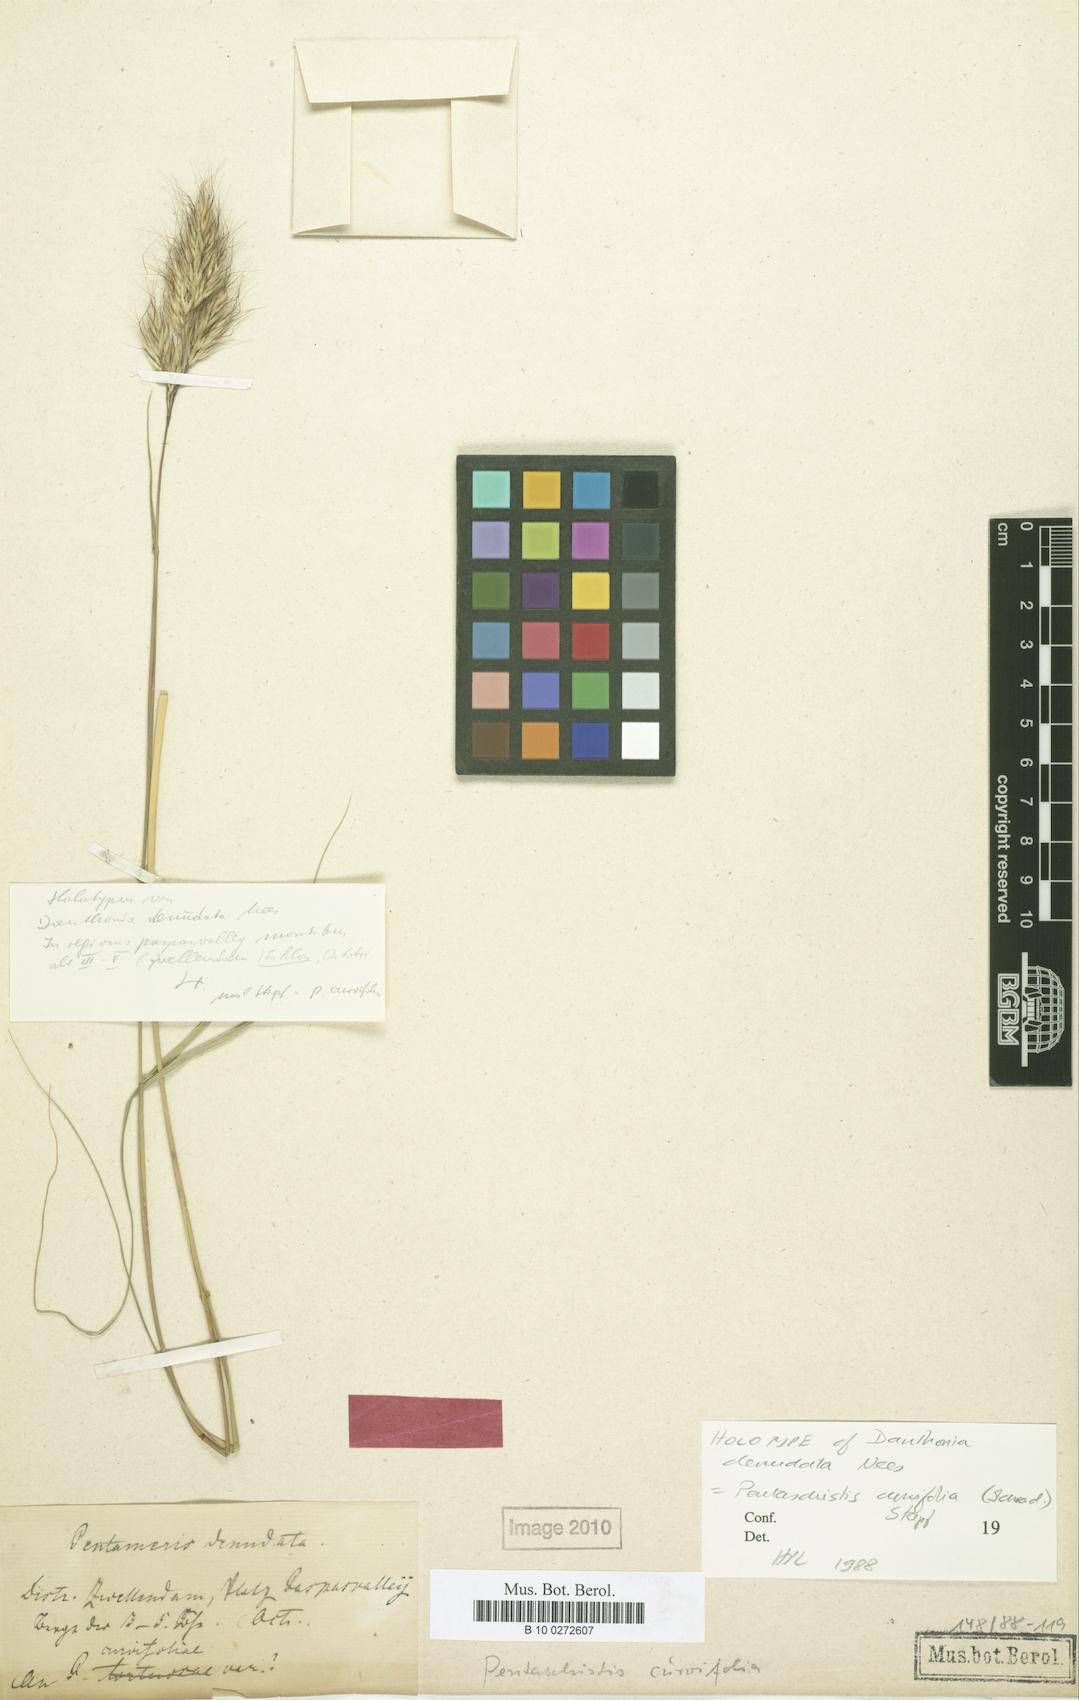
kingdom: Plantae
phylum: Tracheophyta
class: Liliopsida
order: Poales
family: Poaceae
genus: Pentameris
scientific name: Pentameris curvifolia
